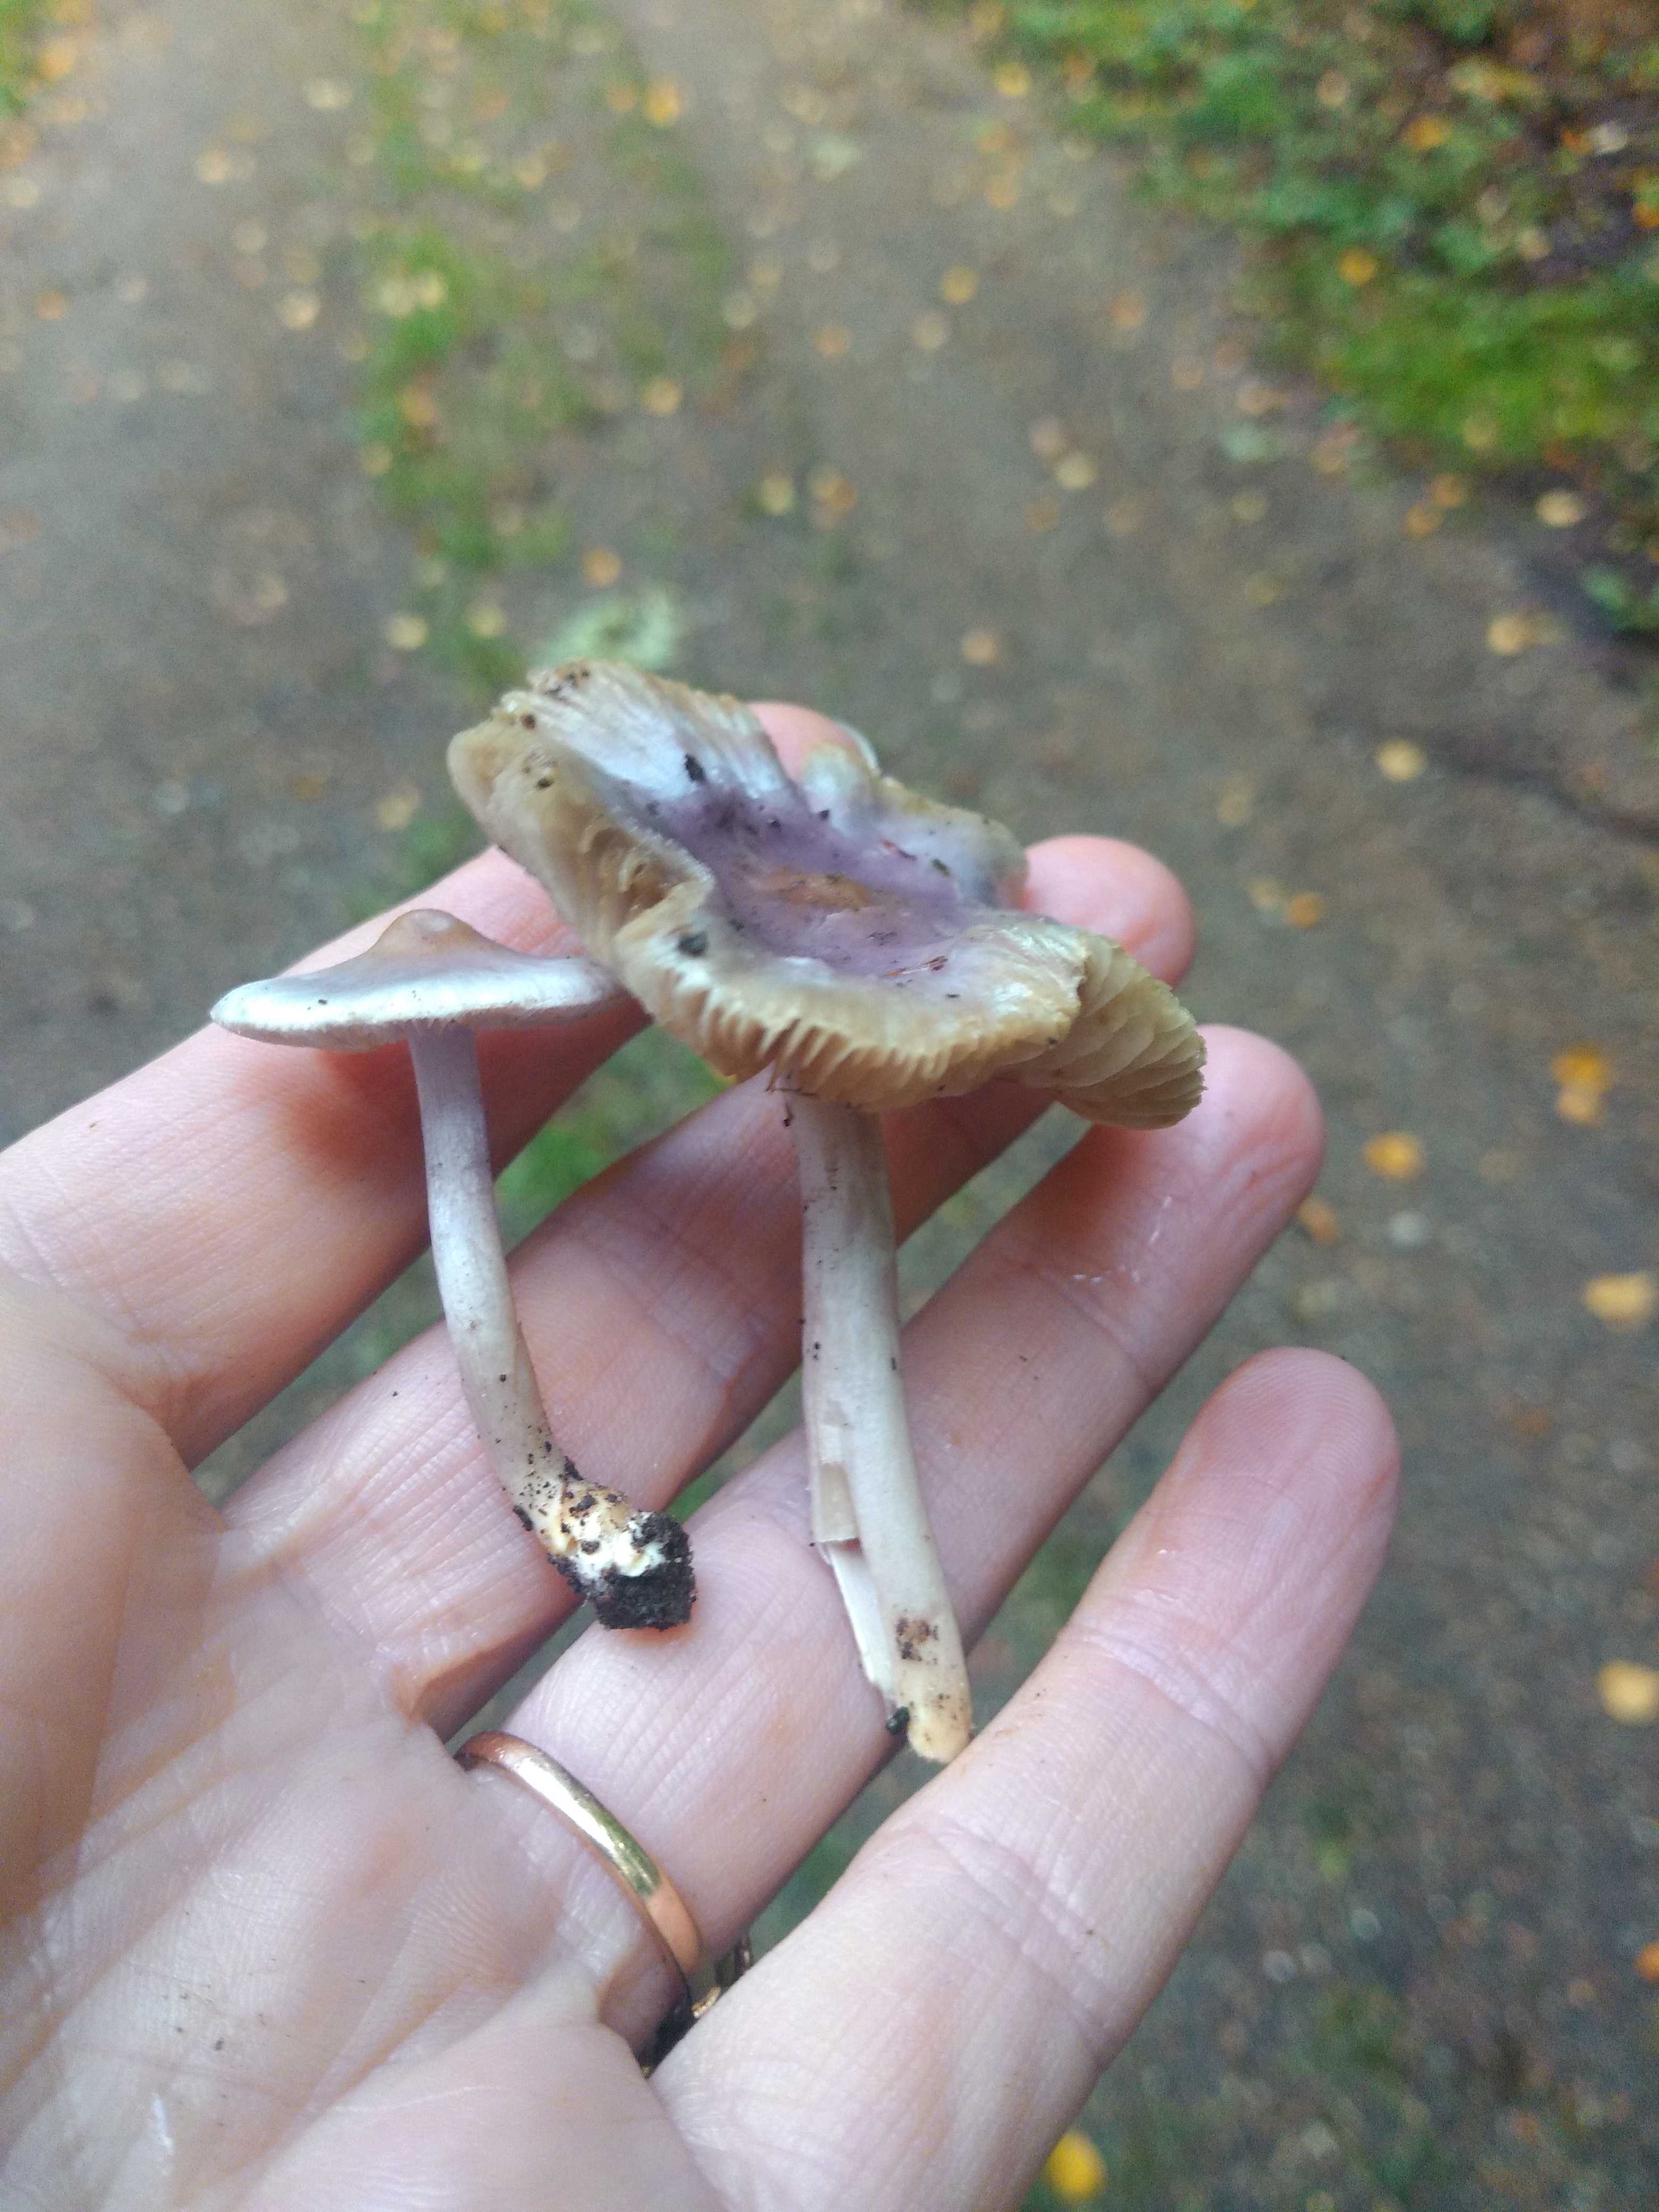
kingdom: Fungi
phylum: Basidiomycota
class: Agaricomycetes
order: Agaricales
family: Inocybaceae
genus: Inocybe
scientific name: Inocybe geophylla
